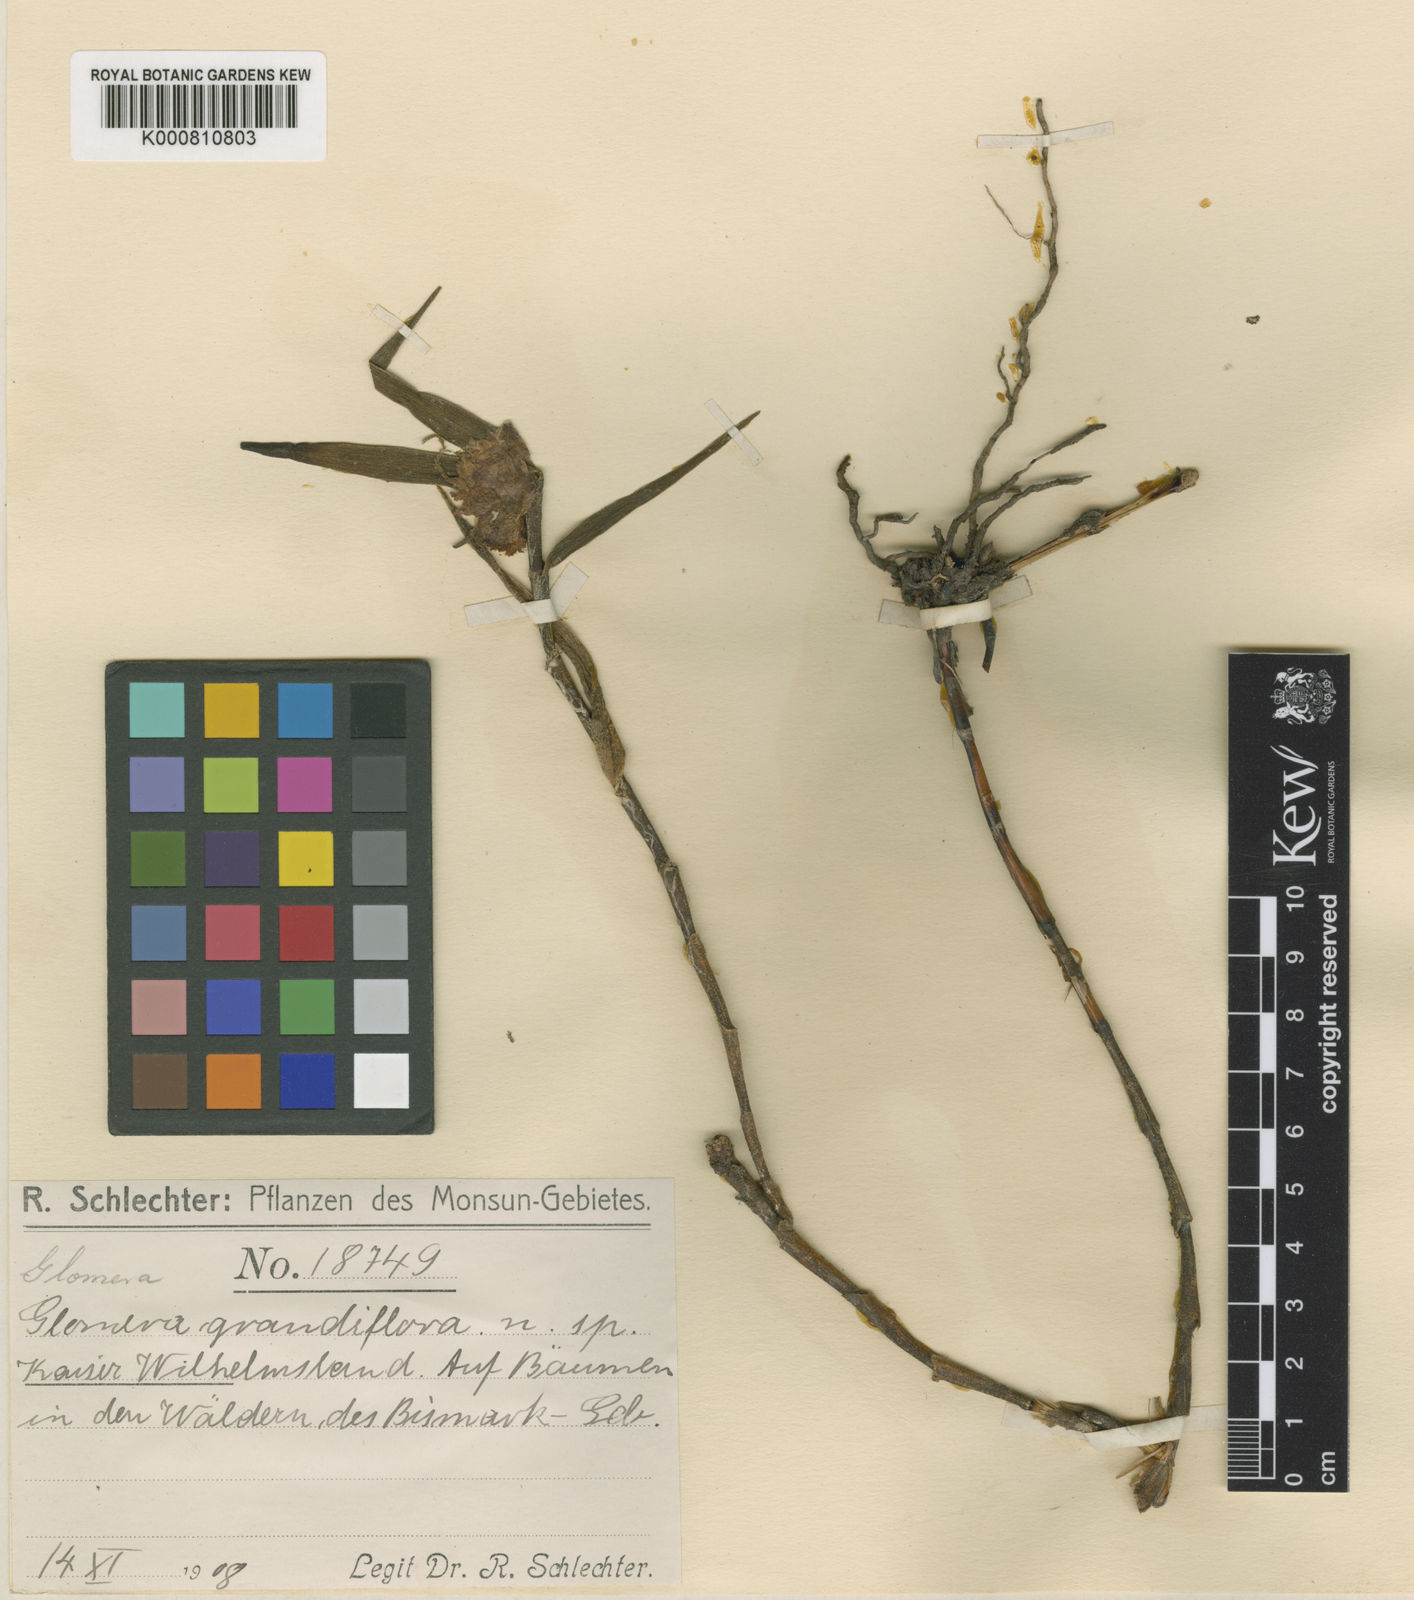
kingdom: Plantae
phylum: Tracheophyta
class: Liliopsida
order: Asparagales
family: Orchidaceae
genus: Glomera
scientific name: Glomera grandiflora
